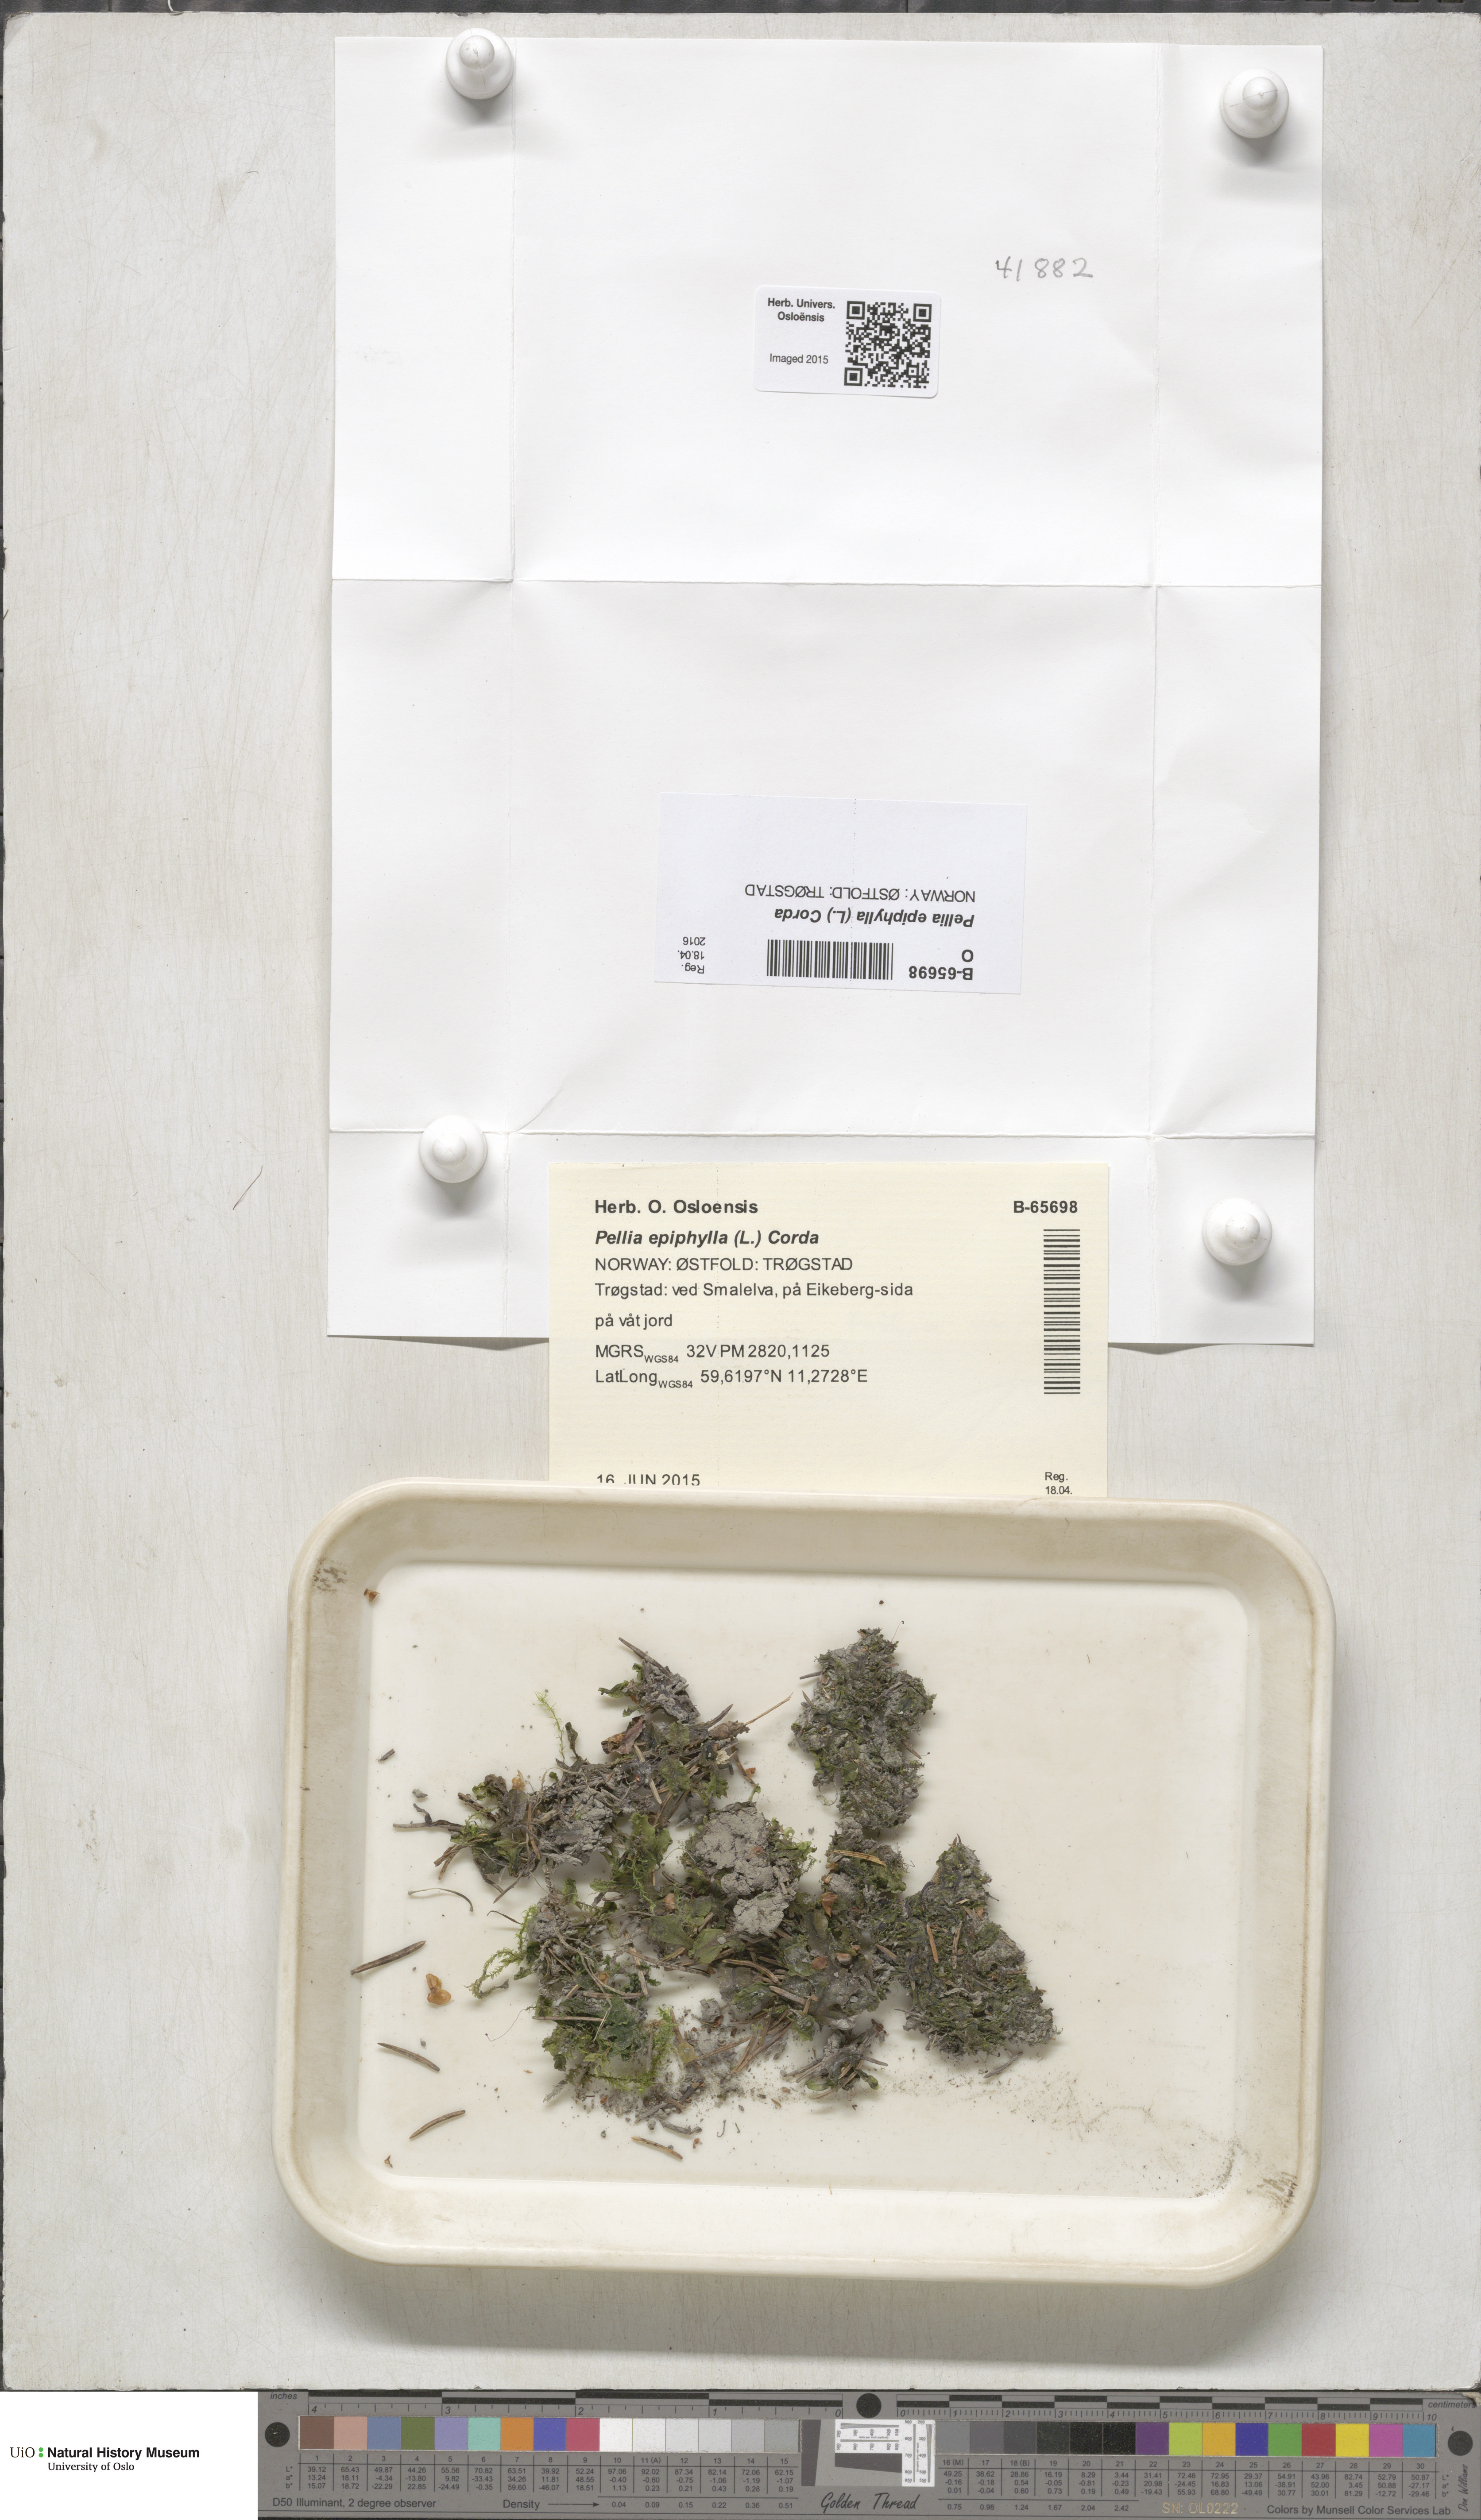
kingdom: Plantae
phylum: Marchantiophyta
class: Jungermanniopsida
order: Pelliales
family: Pelliaceae
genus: Pellia
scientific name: Pellia epiphylla
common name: Common pellia
